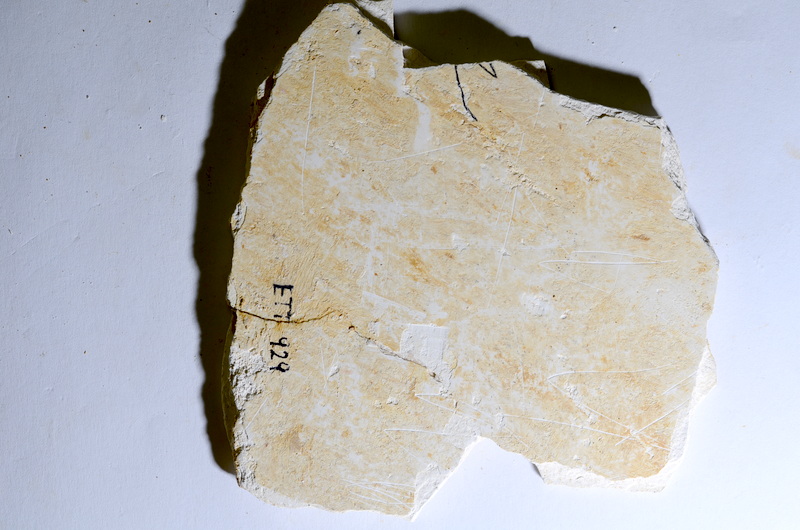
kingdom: Animalia
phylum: Chordata
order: Salmoniformes
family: Orthogonikleithridae
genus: Orthogonikleithrus
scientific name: Orthogonikleithrus hoelli
